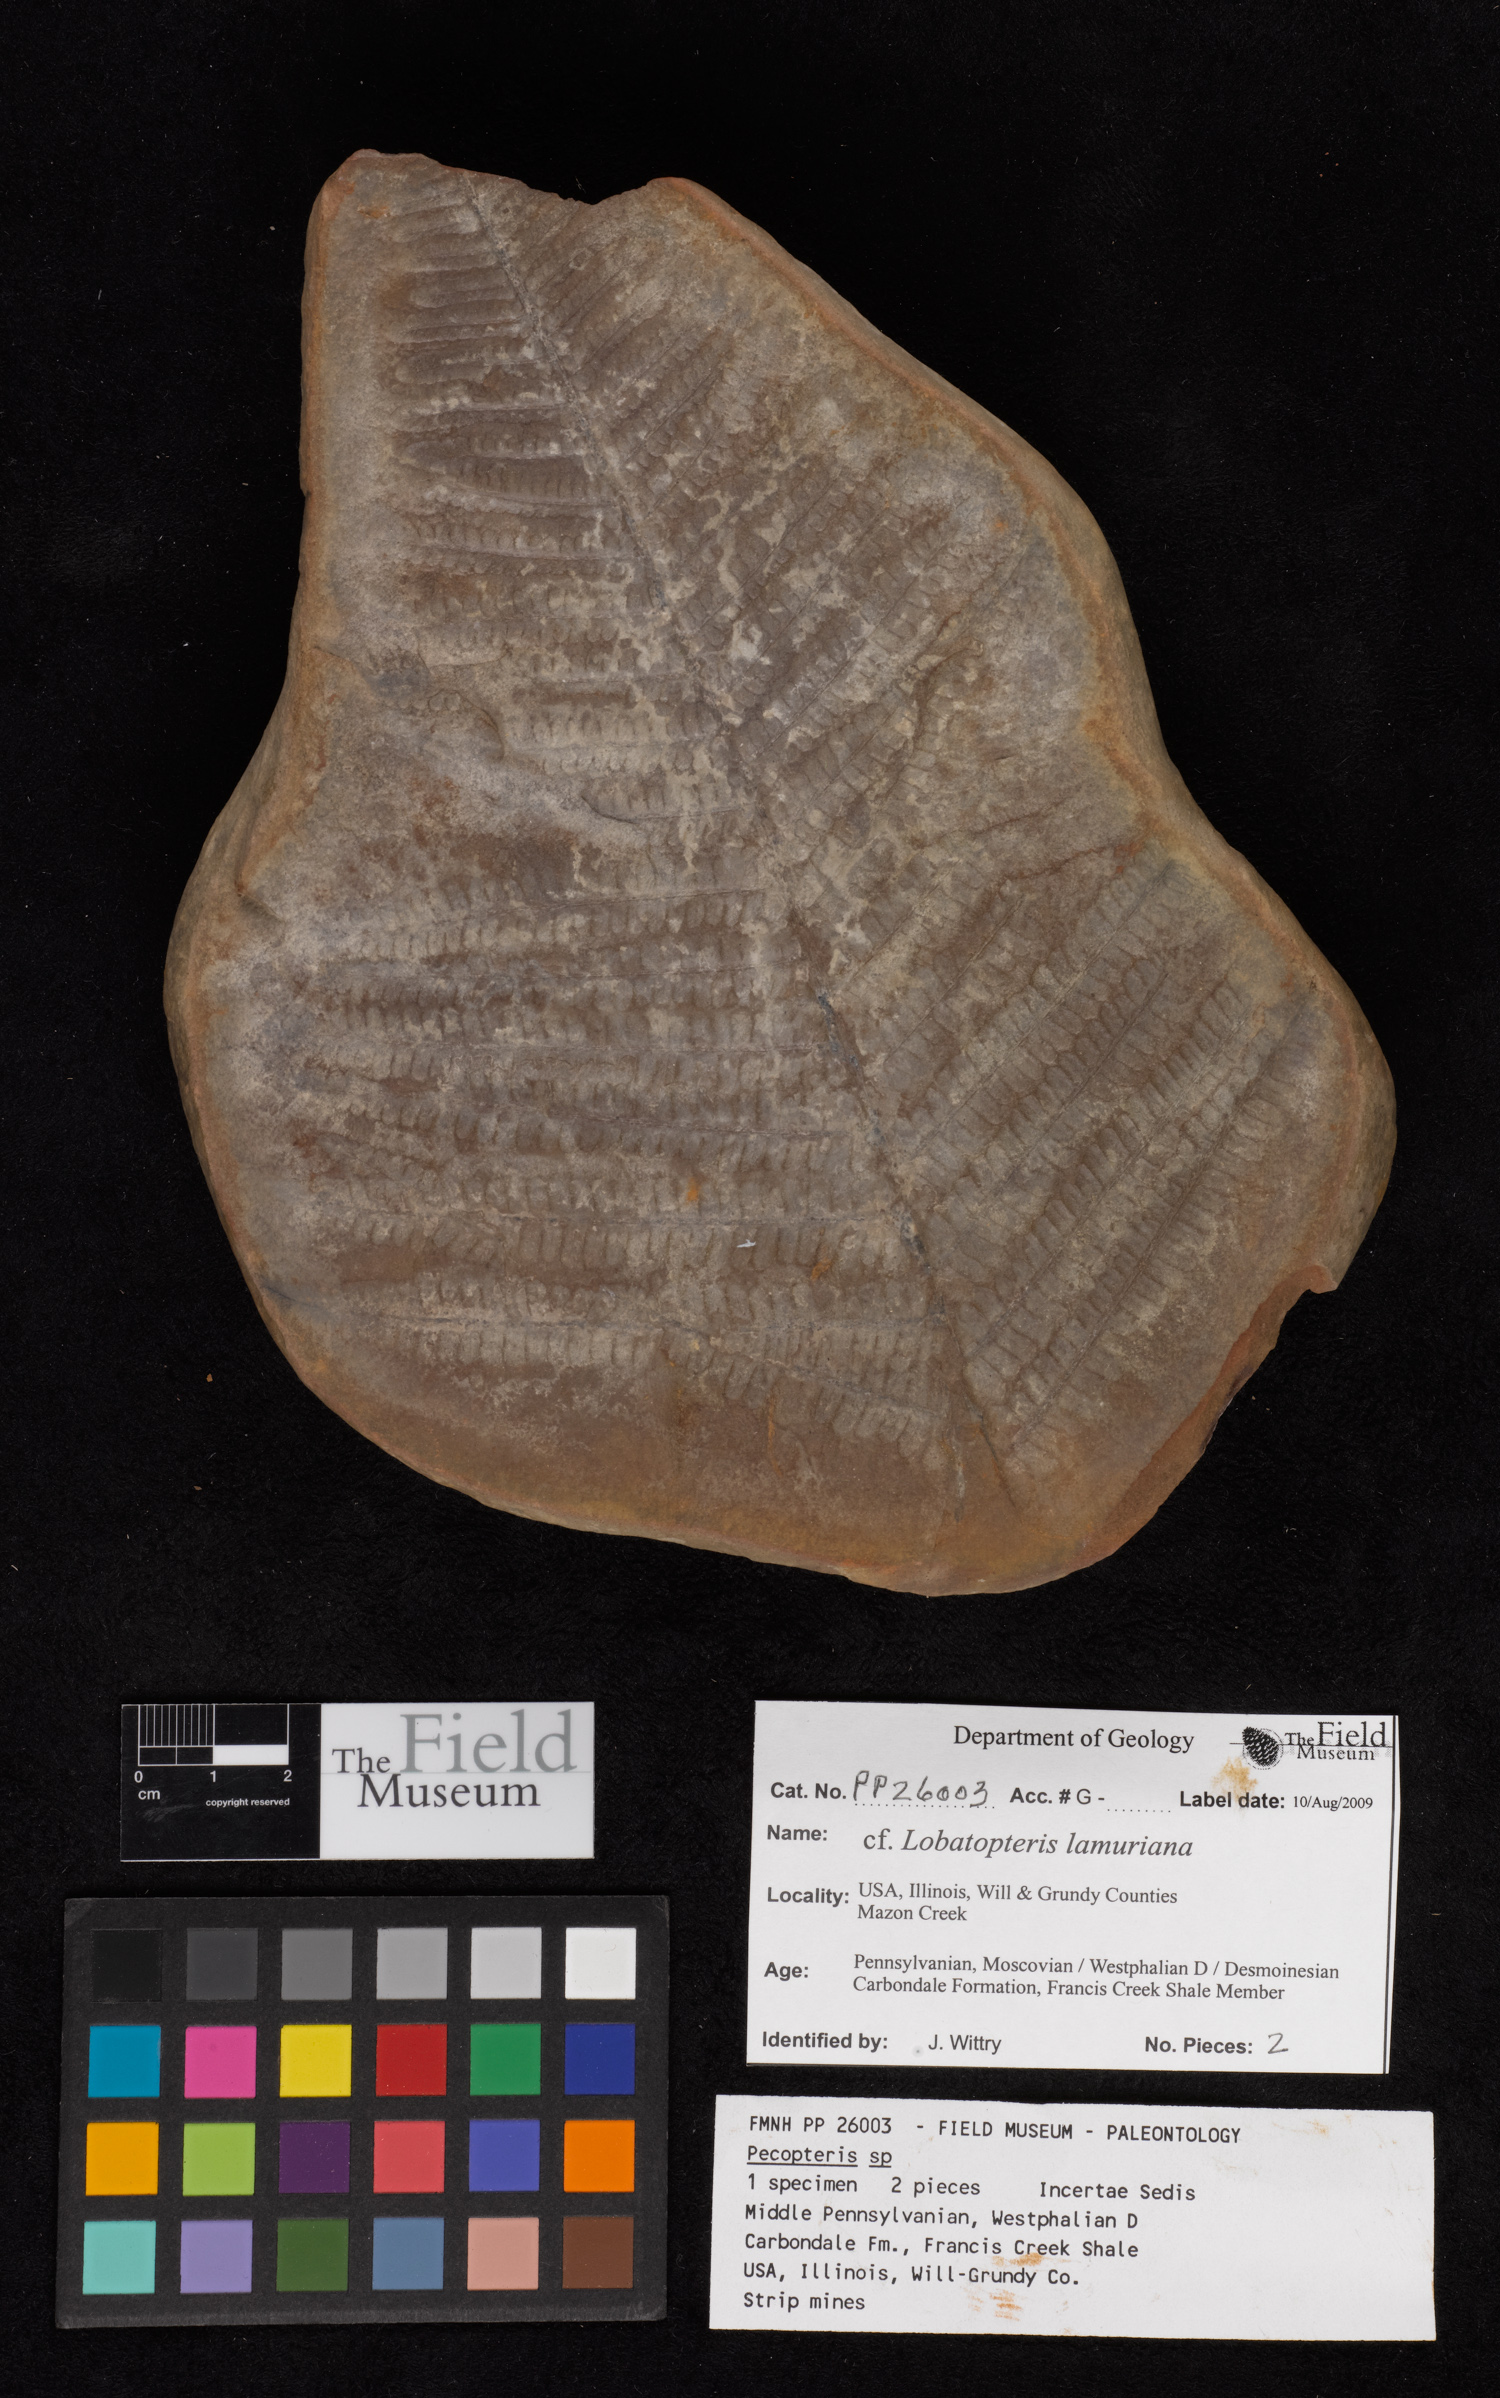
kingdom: Plantae
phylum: Tracheophyta
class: Polypodiopsida
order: Marattiales
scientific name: Marattiales
